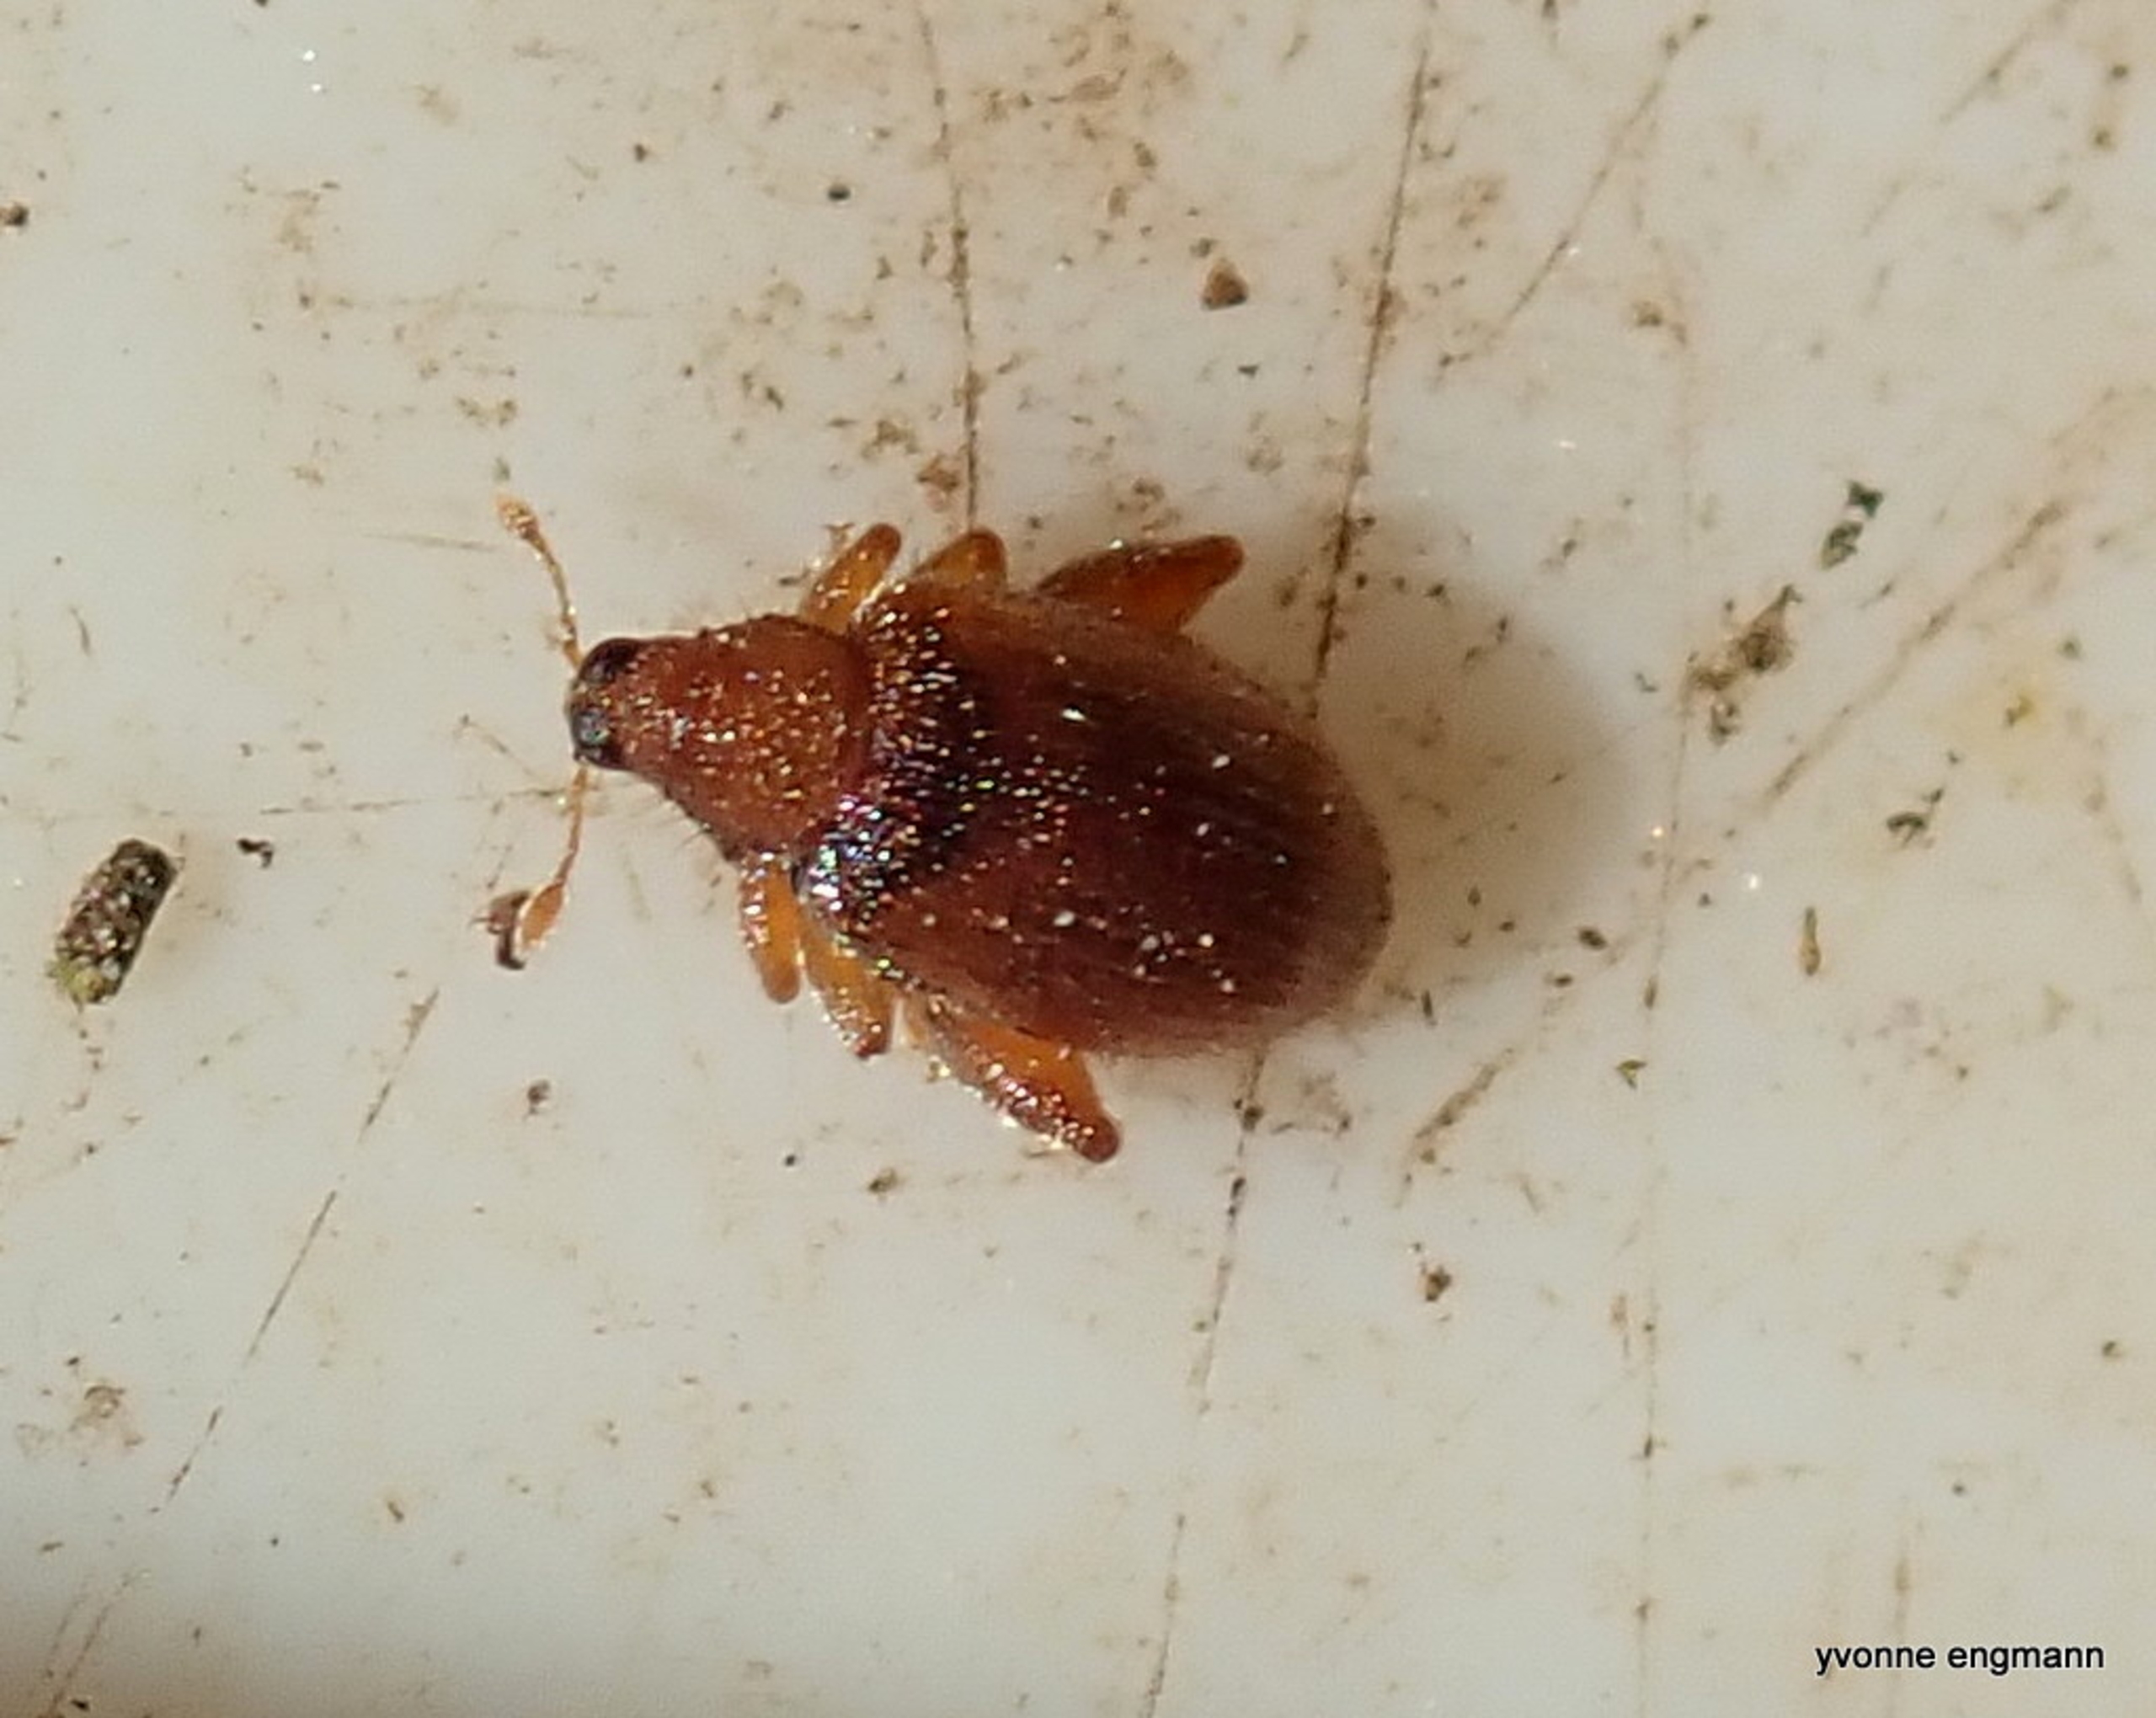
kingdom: Animalia
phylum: Arthropoda
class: Insecta
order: Coleoptera
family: Curculionidae
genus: Orchestes
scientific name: Orchestes quercus
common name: Egeloppe
